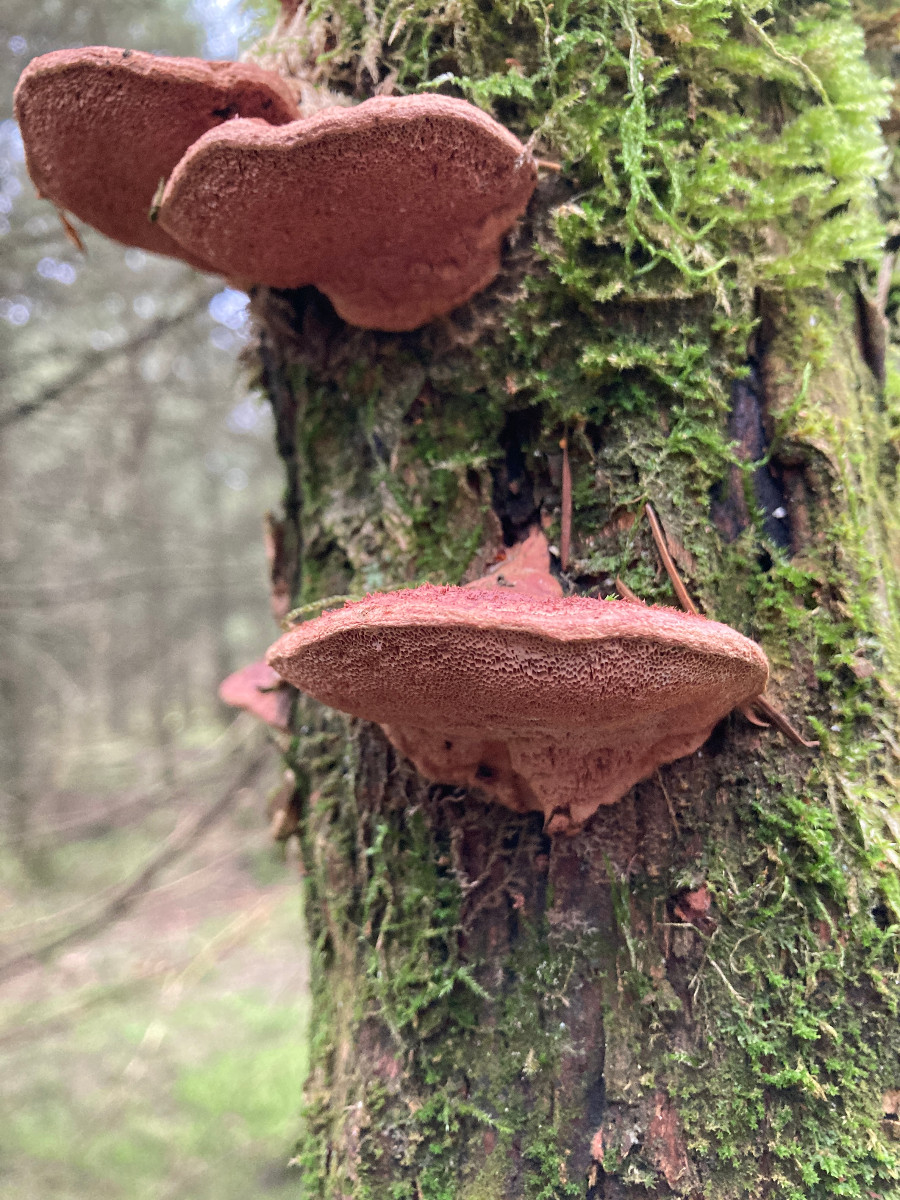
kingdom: Fungi
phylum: Basidiomycota
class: Agaricomycetes
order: Polyporales
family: Phanerochaetaceae
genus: Hapalopilus
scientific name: Hapalopilus rutilans
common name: rødlig okkerporesvamp
